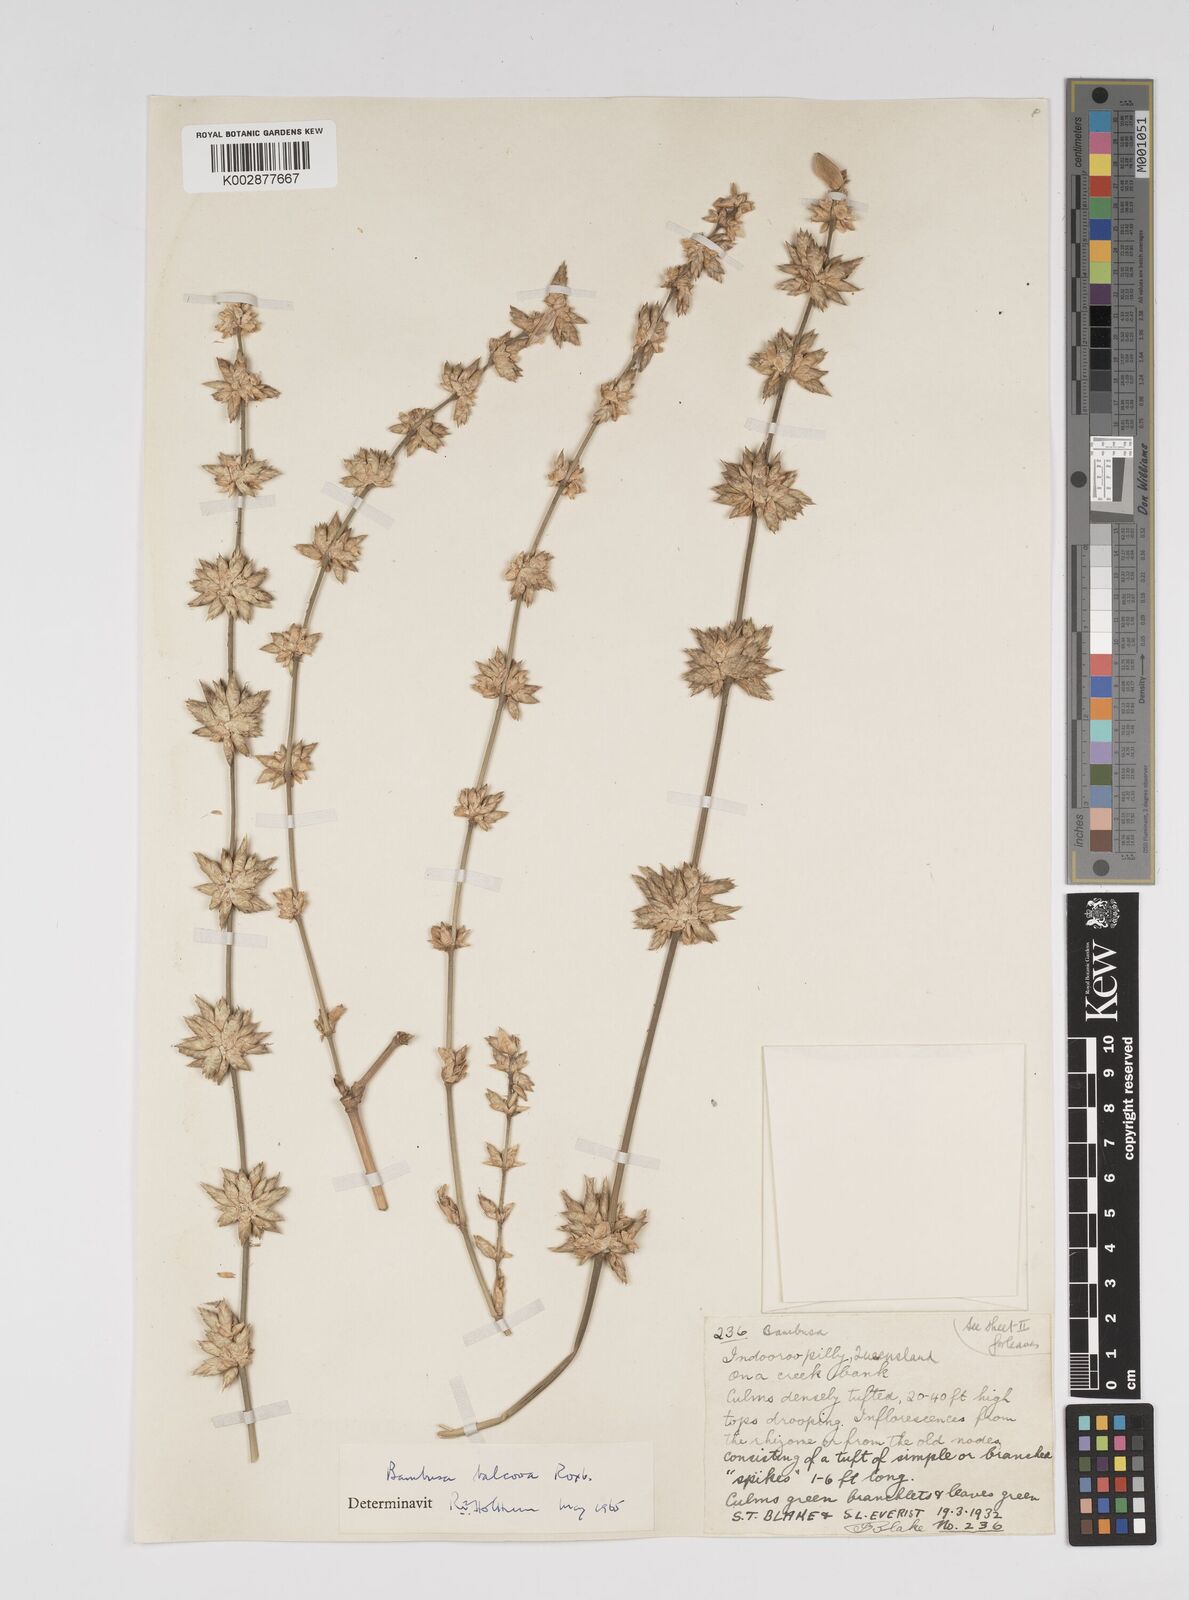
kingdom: Plantae
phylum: Tracheophyta
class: Liliopsida
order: Poales
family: Poaceae
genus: Bambusa
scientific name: Bambusa balcooa
